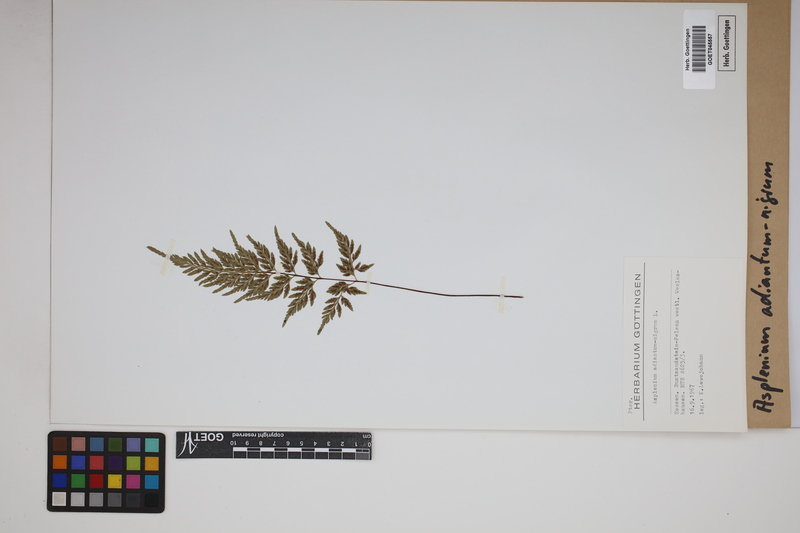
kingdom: Plantae
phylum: Tracheophyta
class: Polypodiopsida
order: Polypodiales
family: Aspleniaceae
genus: Asplenium
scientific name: Asplenium adiantum-nigrum
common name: Black spleenwort
